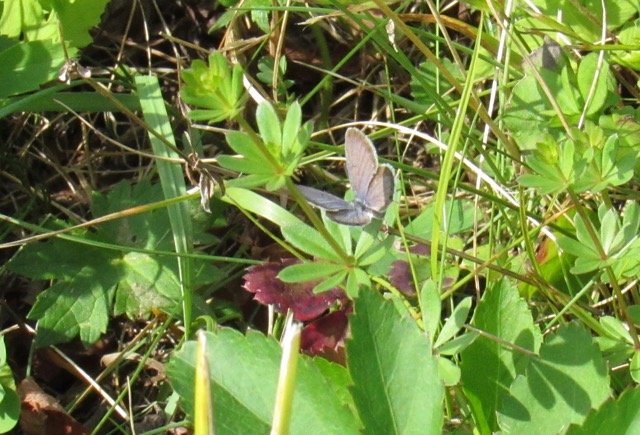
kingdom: Animalia
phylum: Arthropoda
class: Insecta
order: Lepidoptera
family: Lycaenidae
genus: Elkalyce
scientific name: Elkalyce comyntas
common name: Eastern Tailed-Blue
